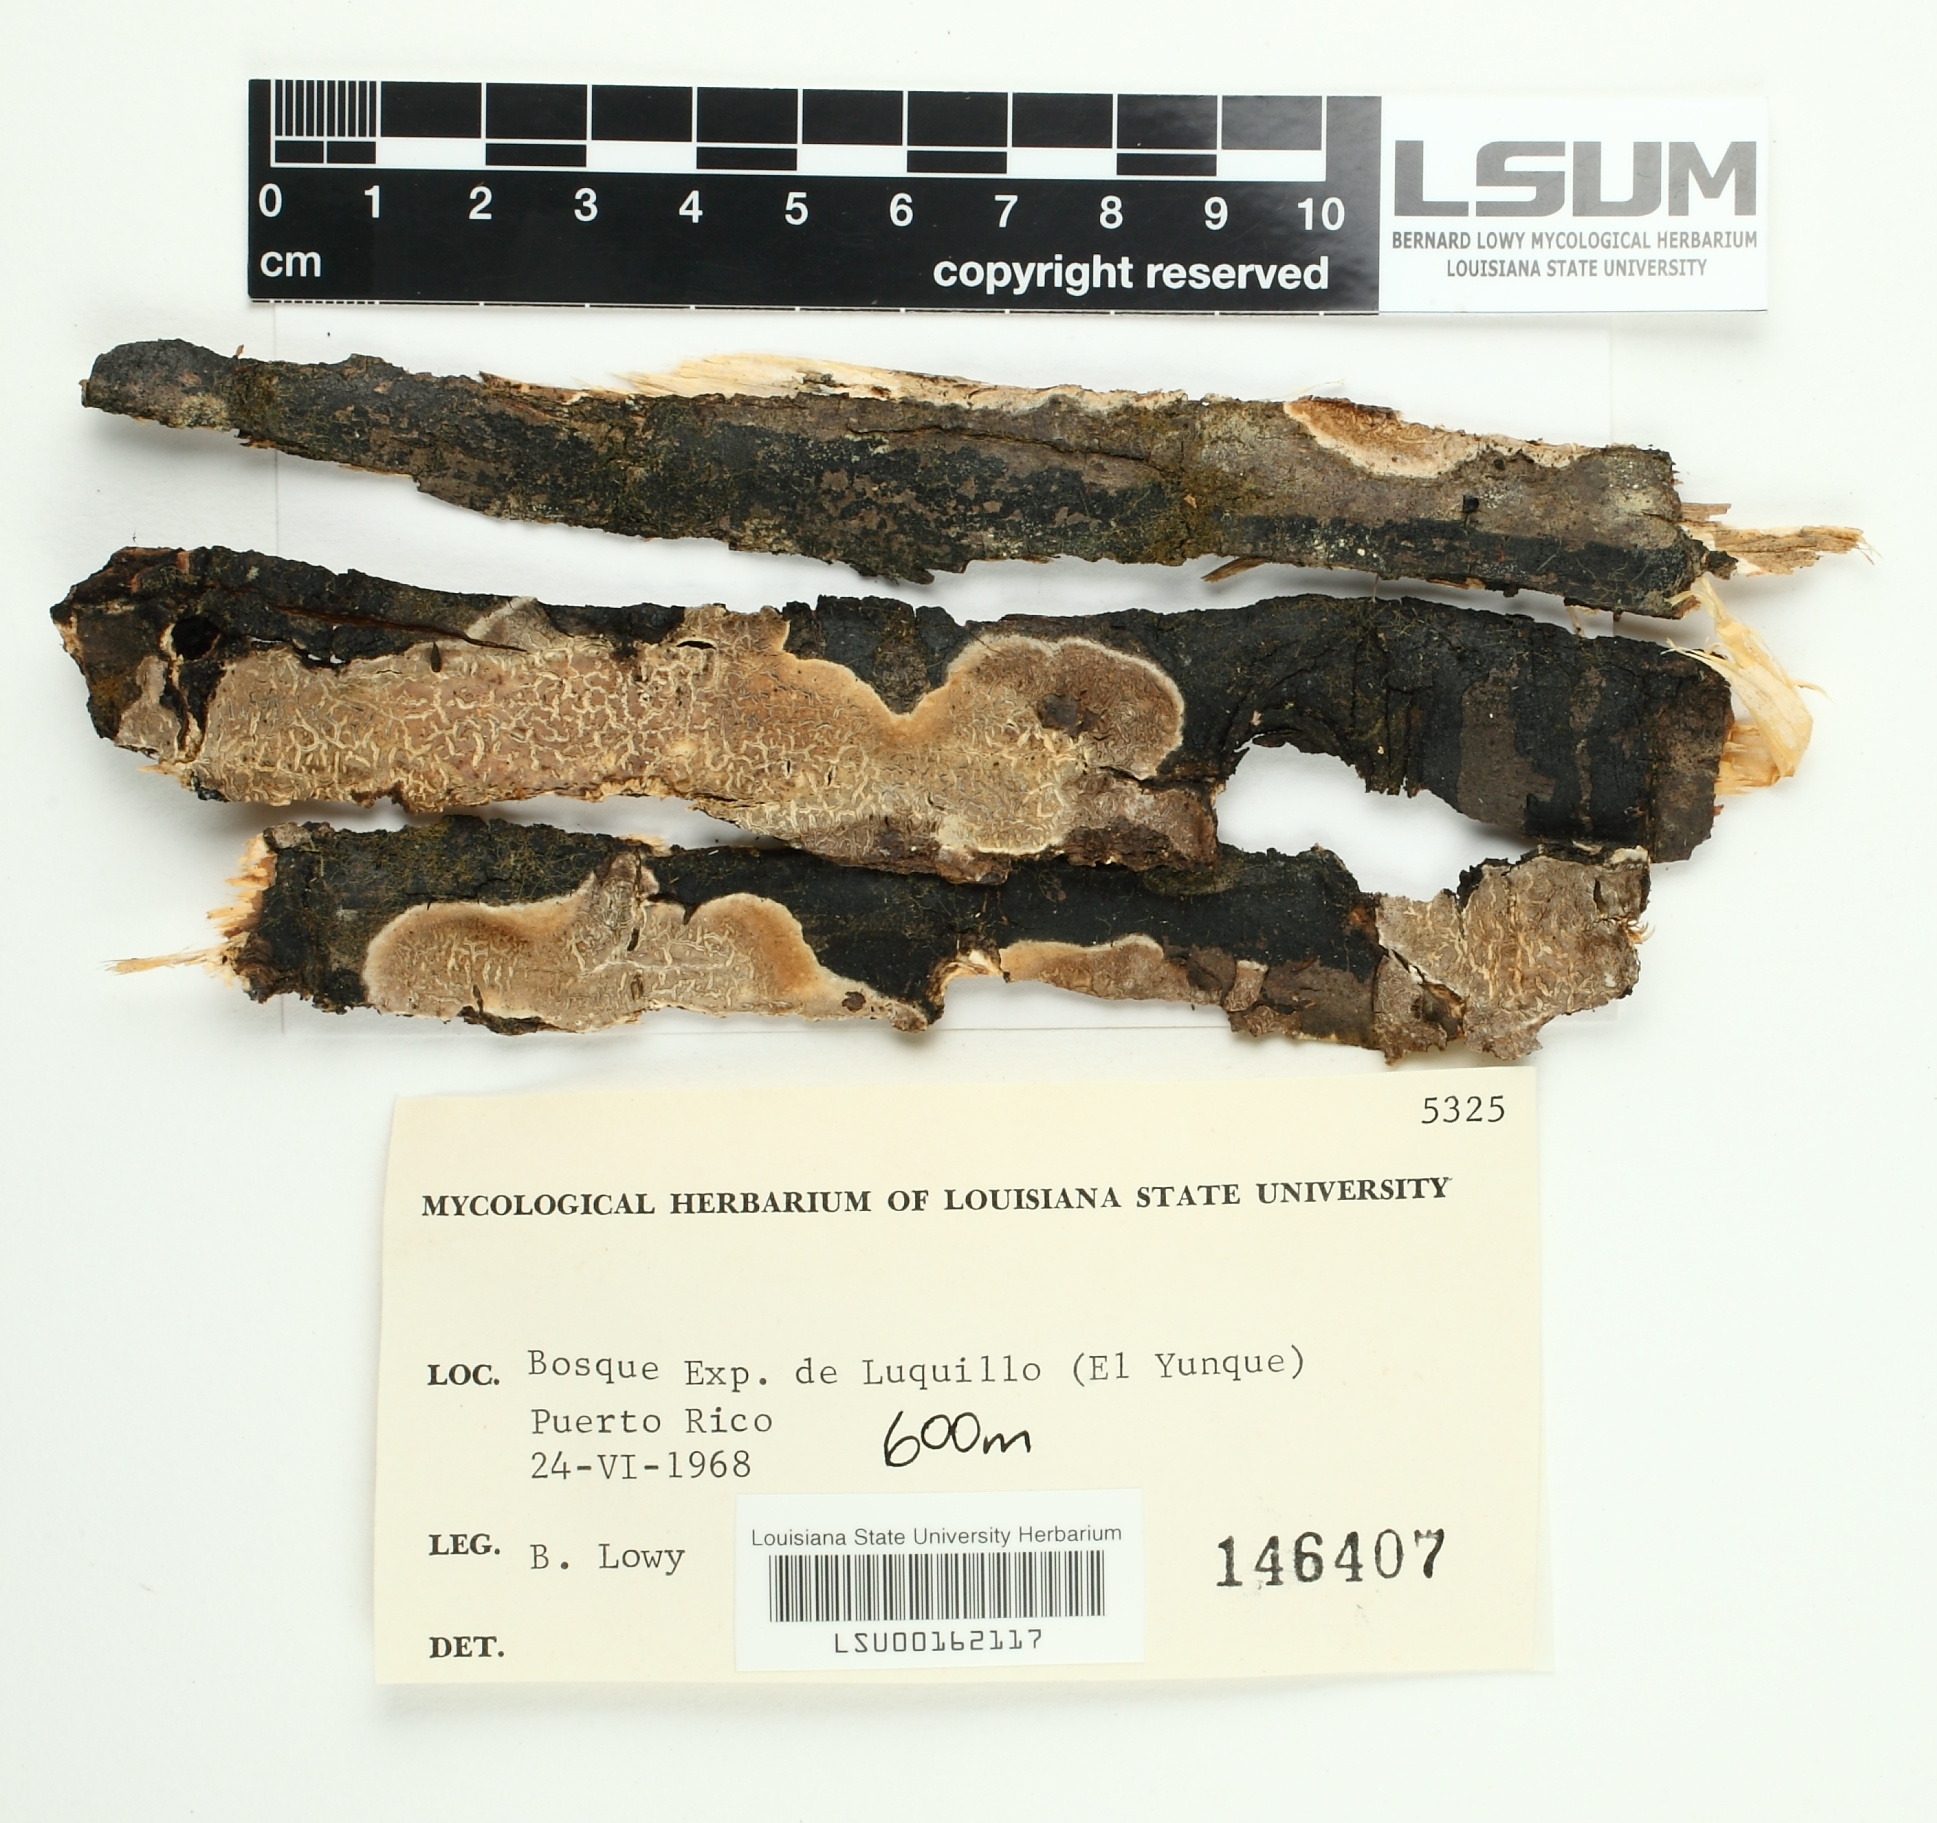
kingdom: Fungi
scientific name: Fungi
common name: Fungi
